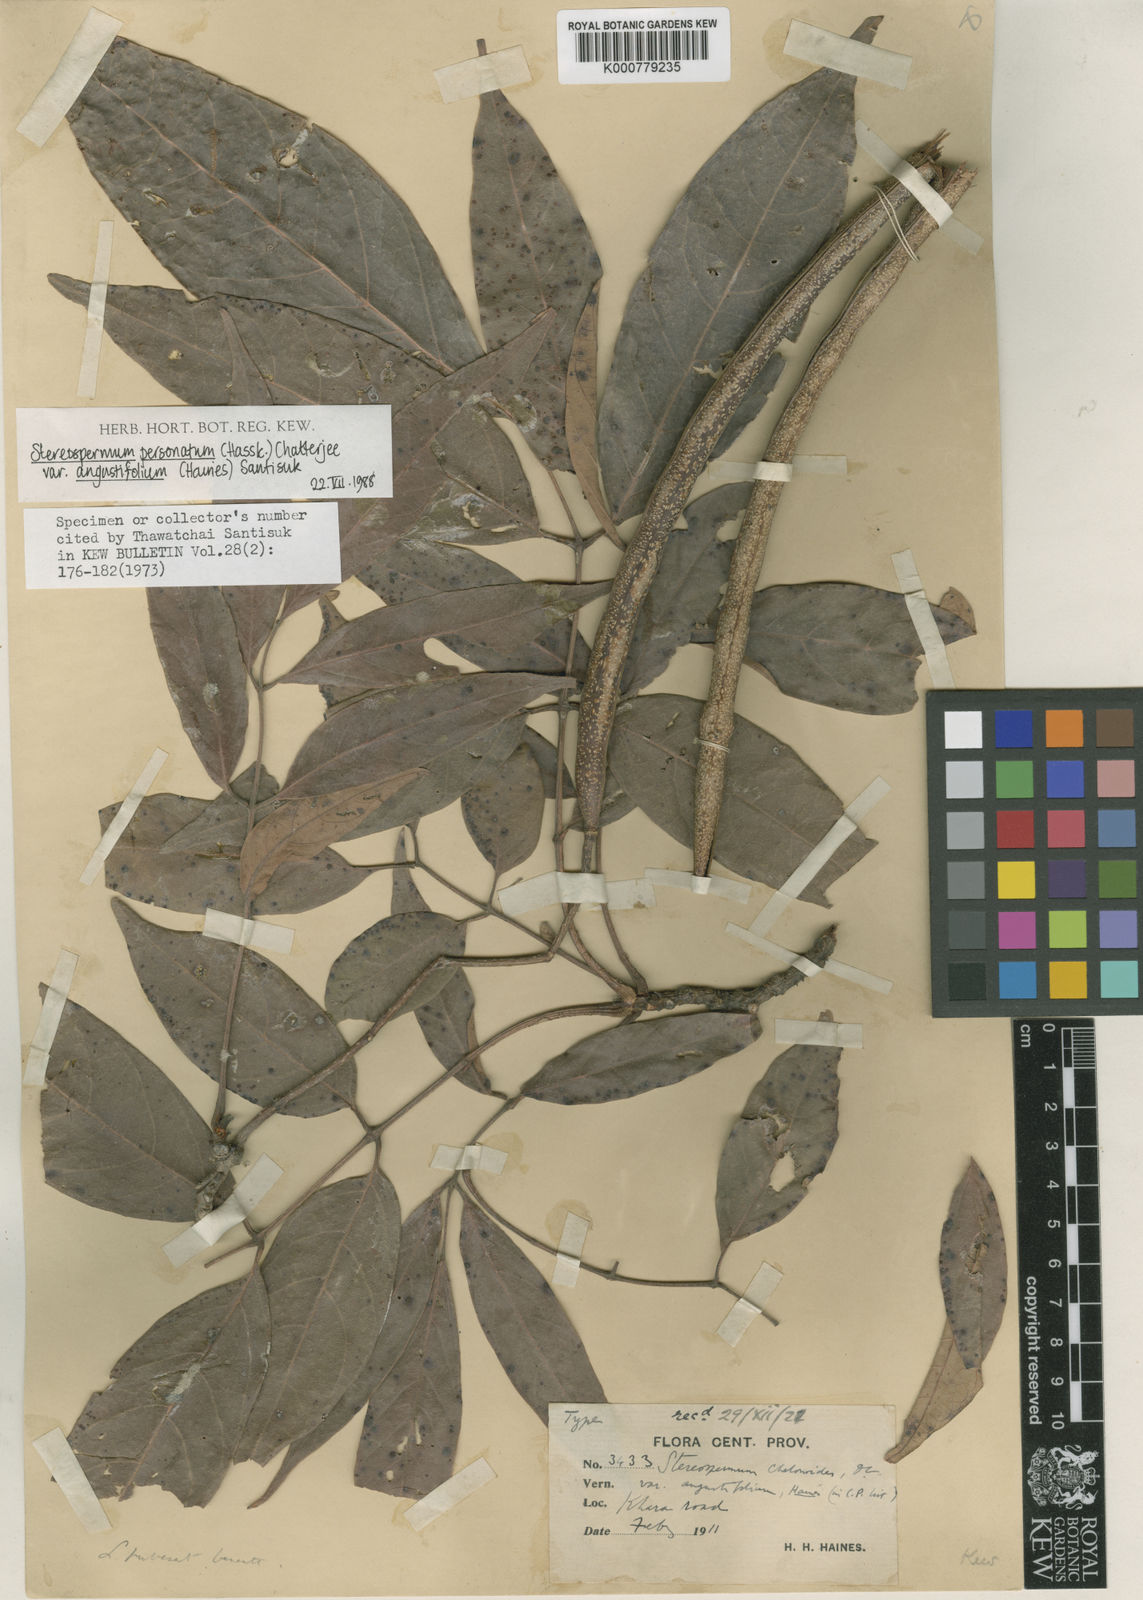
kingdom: Plantae
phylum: Tracheophyta
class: Magnoliopsida
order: Lamiales
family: Bignoniaceae
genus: Stereospermum
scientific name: Stereospermum angustifolium
